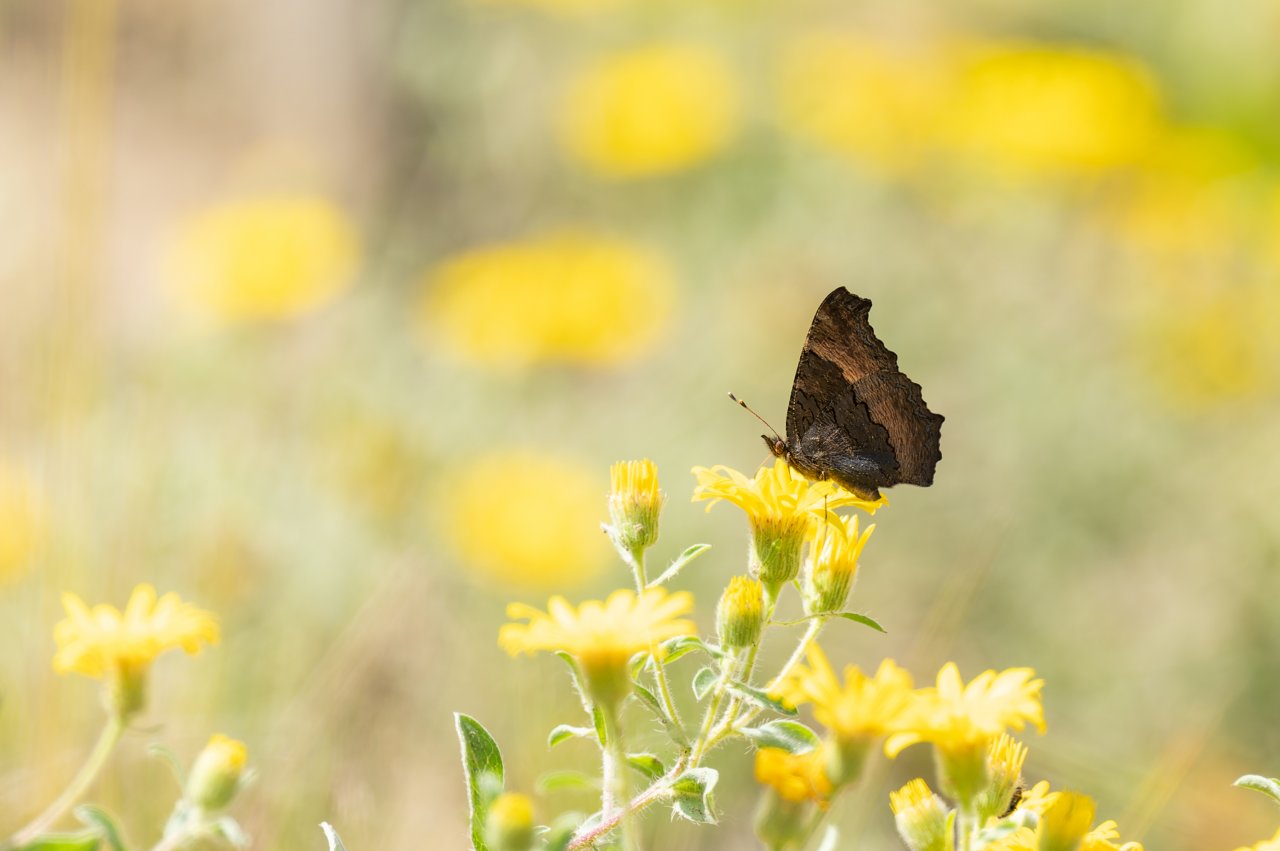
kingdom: Animalia
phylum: Arthropoda
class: Insecta
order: Lepidoptera
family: Nymphalidae
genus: Aglais
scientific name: Aglais milberti
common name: Milbert's Tortoiseshell
